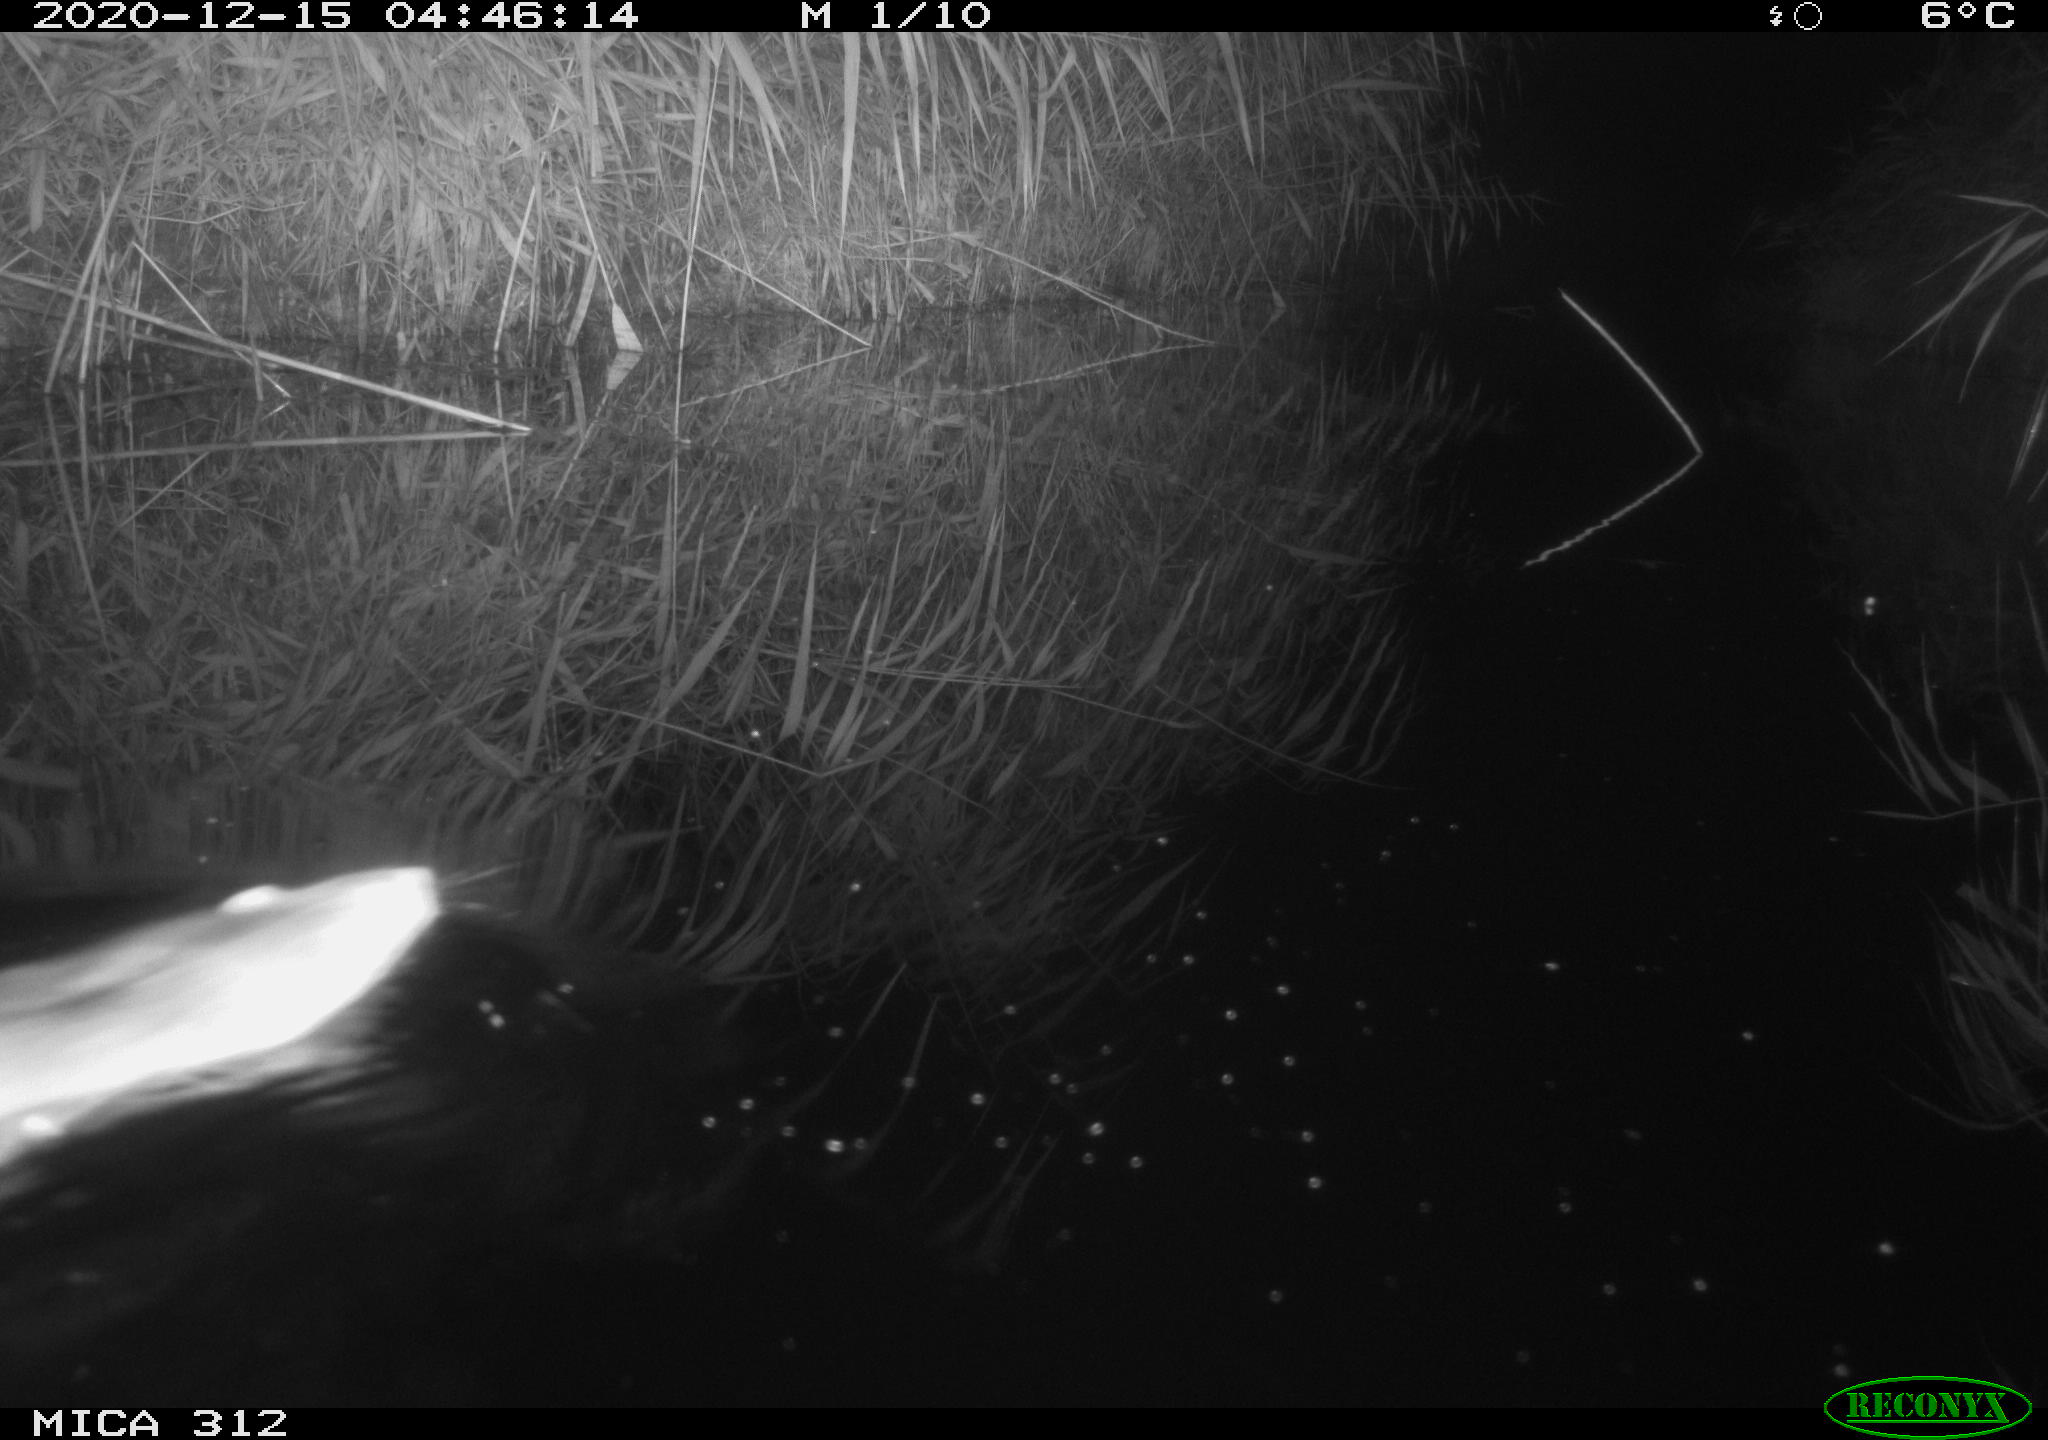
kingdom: Animalia
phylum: Chordata
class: Mammalia
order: Rodentia
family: Muridae
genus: Rattus
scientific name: Rattus norvegicus
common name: Brown rat
